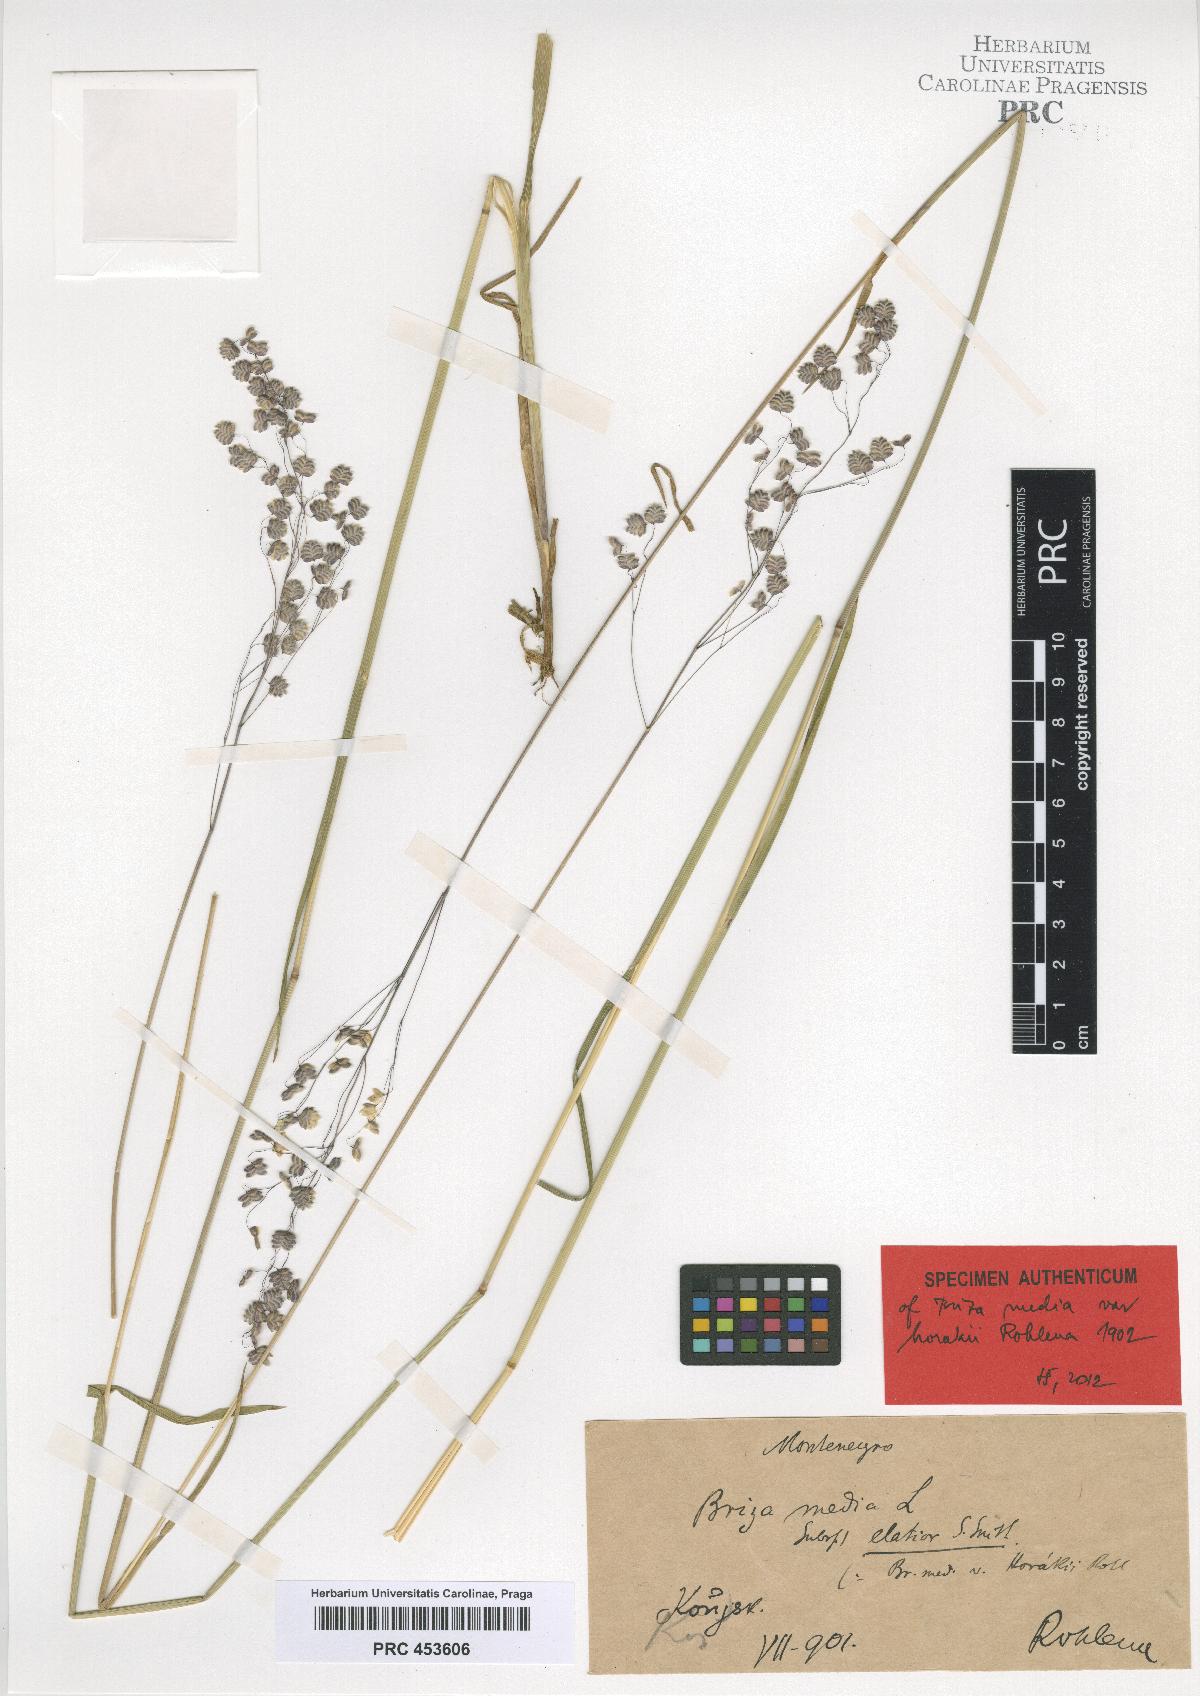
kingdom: Plantae
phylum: Tracheophyta
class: Liliopsida
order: Poales
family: Poaceae
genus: Briza
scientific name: Briza media
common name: Quaking grass
